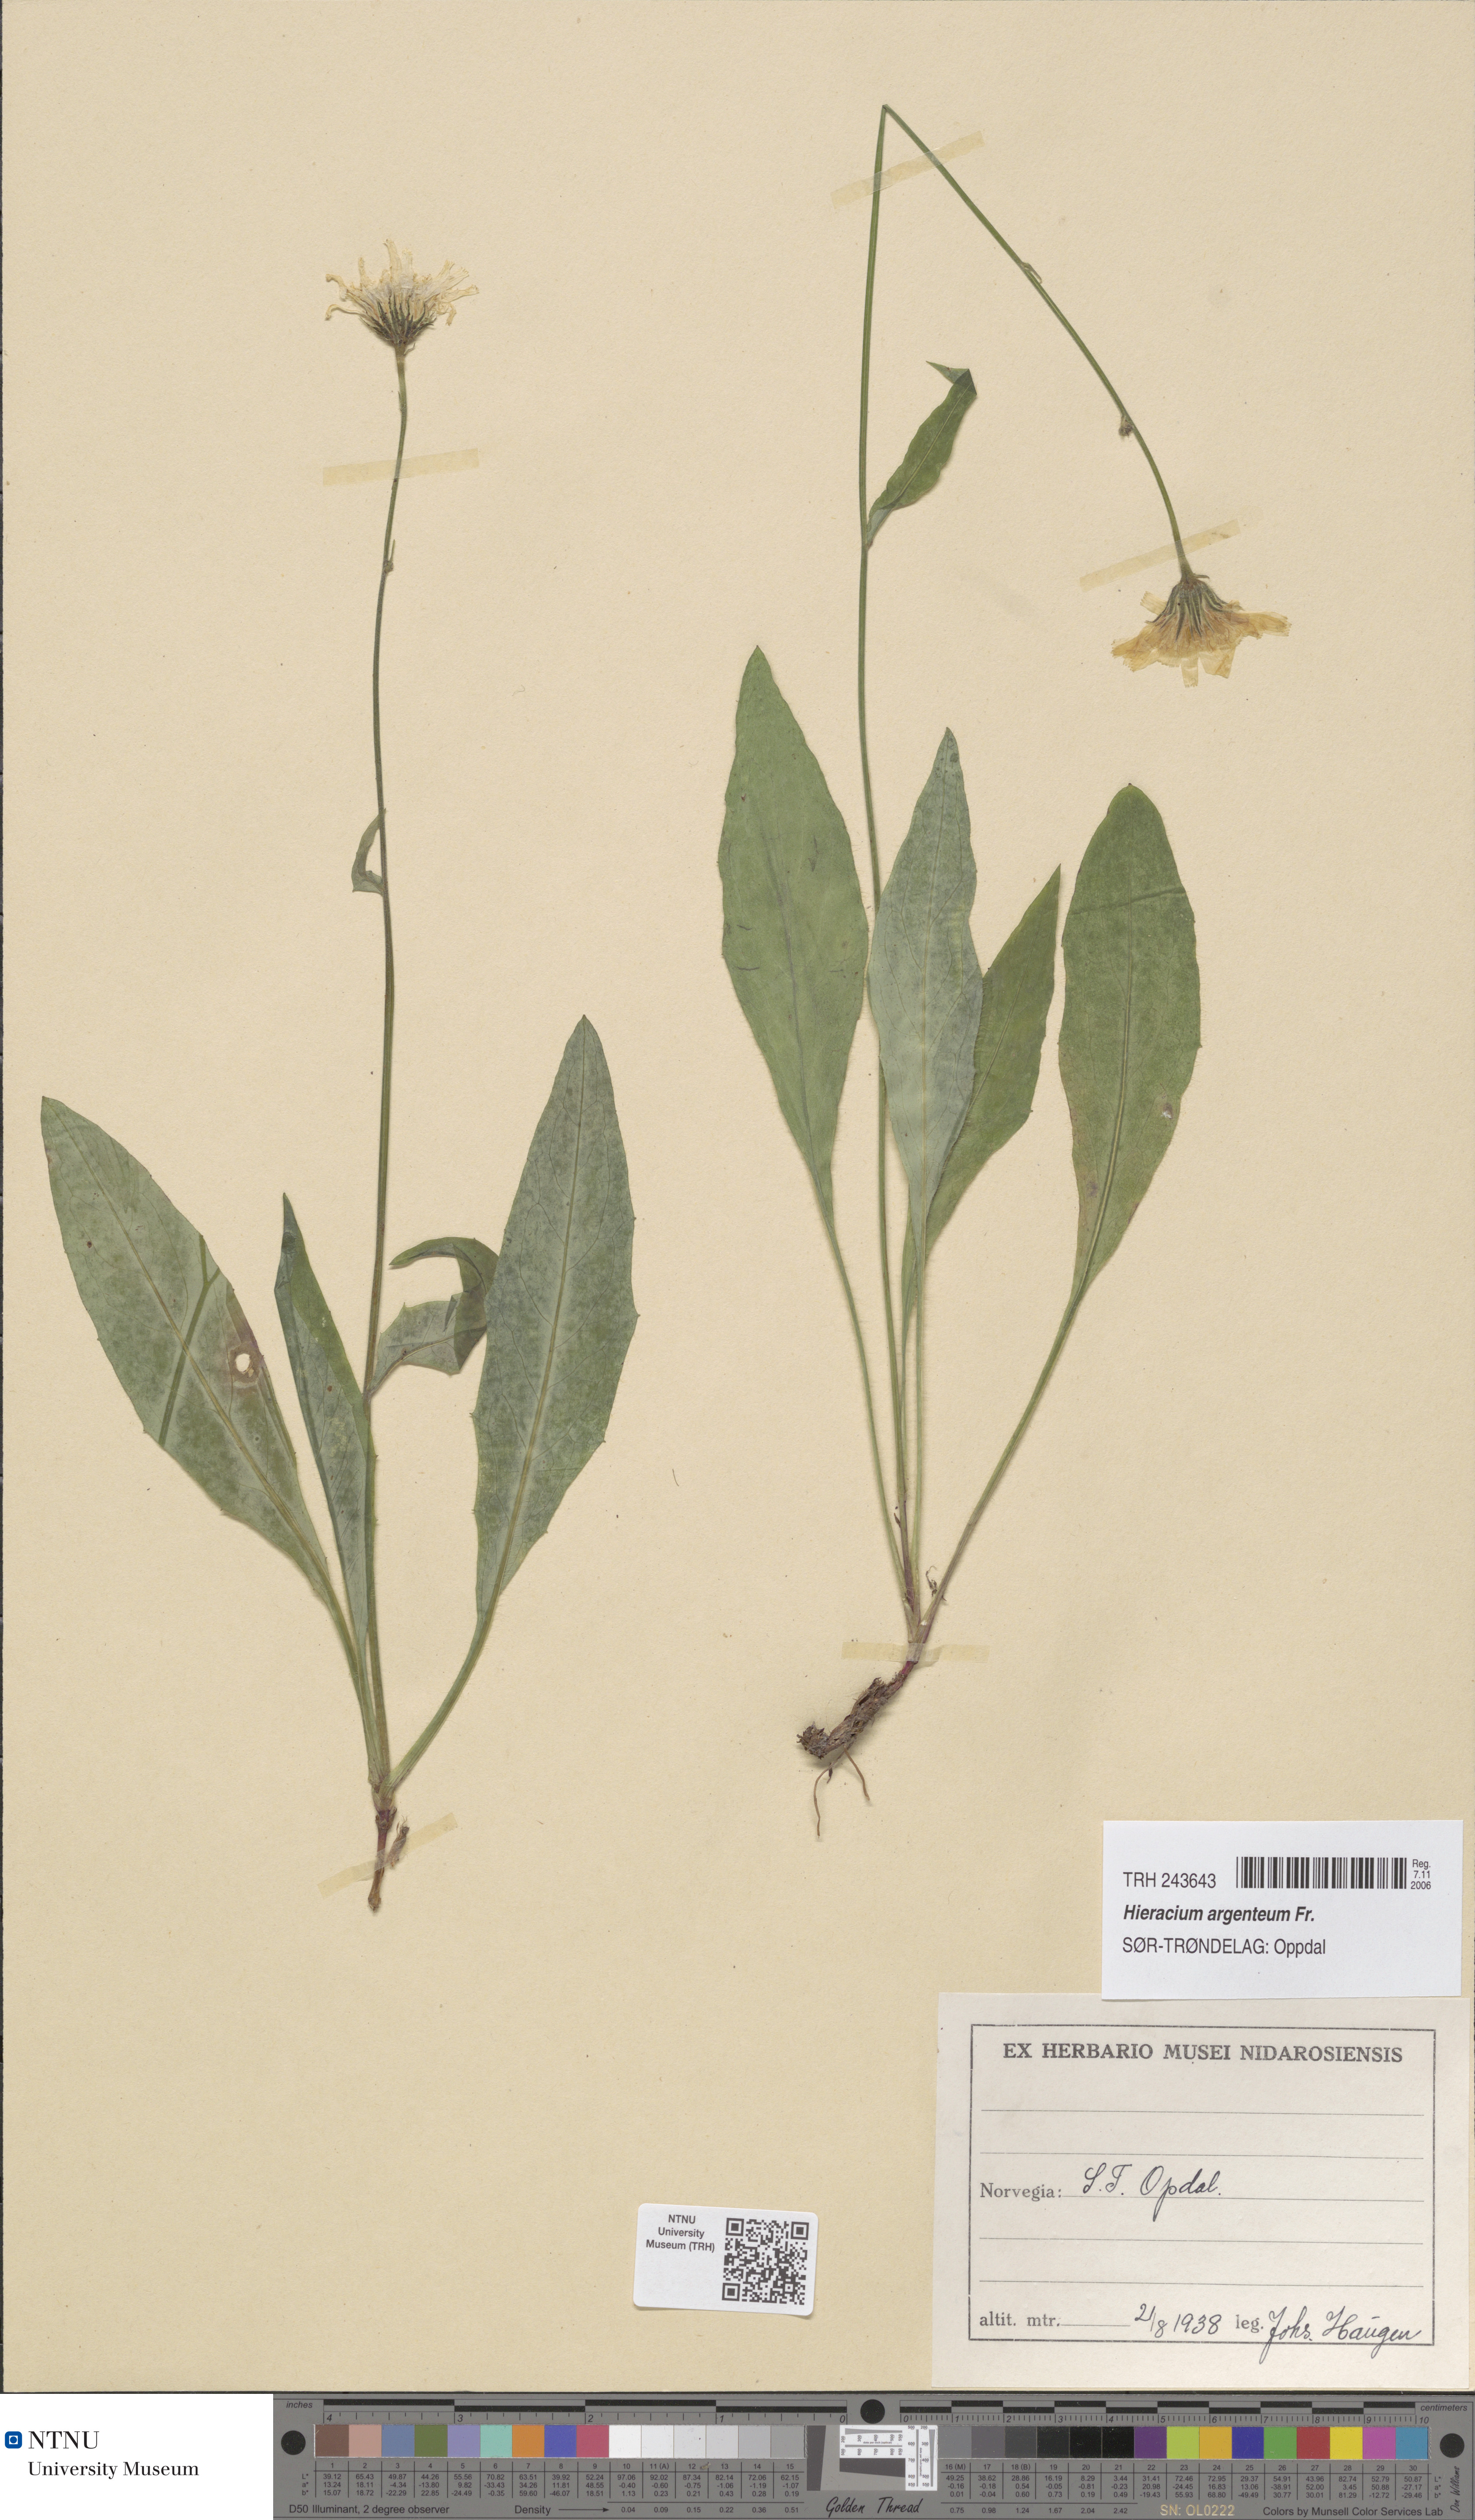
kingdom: Plantae
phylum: Tracheophyta
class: Magnoliopsida
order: Asterales
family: Asteraceae
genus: Hieracium
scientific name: Hieracium argenteum
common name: Silver hawkweed
